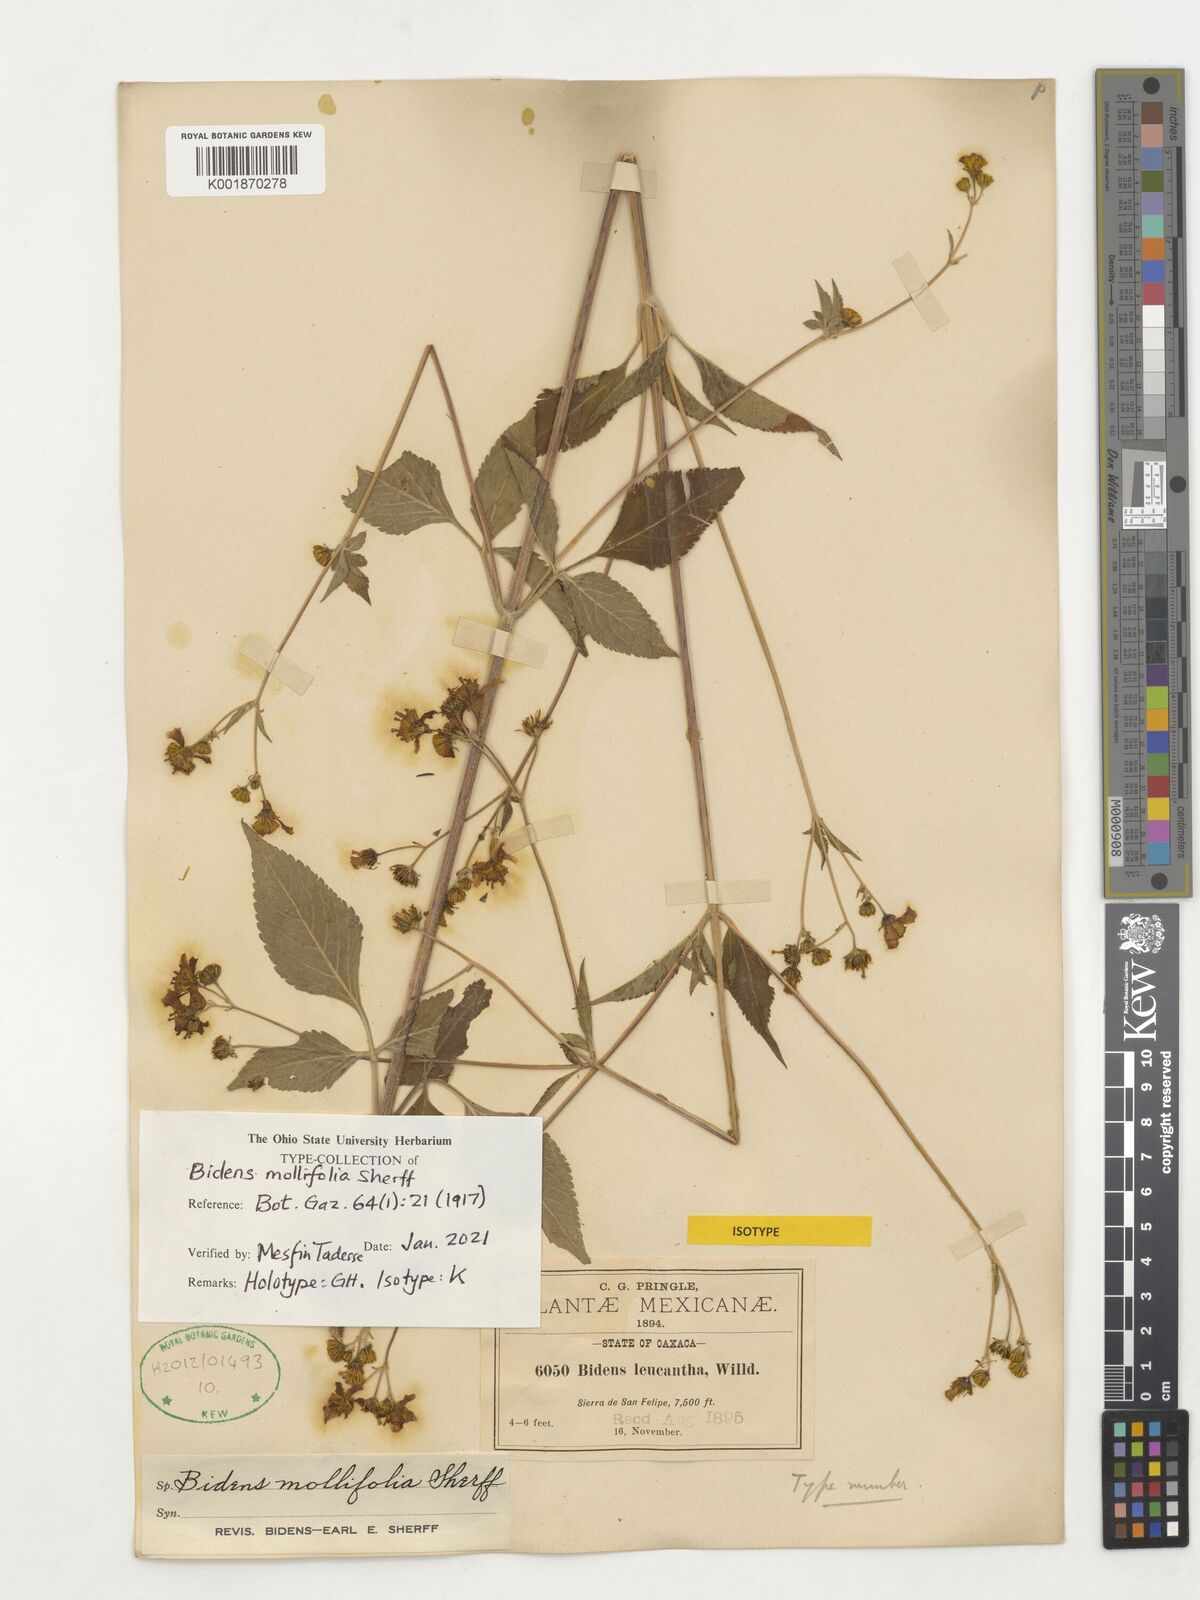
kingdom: Plantae
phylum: Tracheophyta
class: Magnoliopsida
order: Asterales
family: Asteraceae
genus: Bidens
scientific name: Bidens mollifolia
